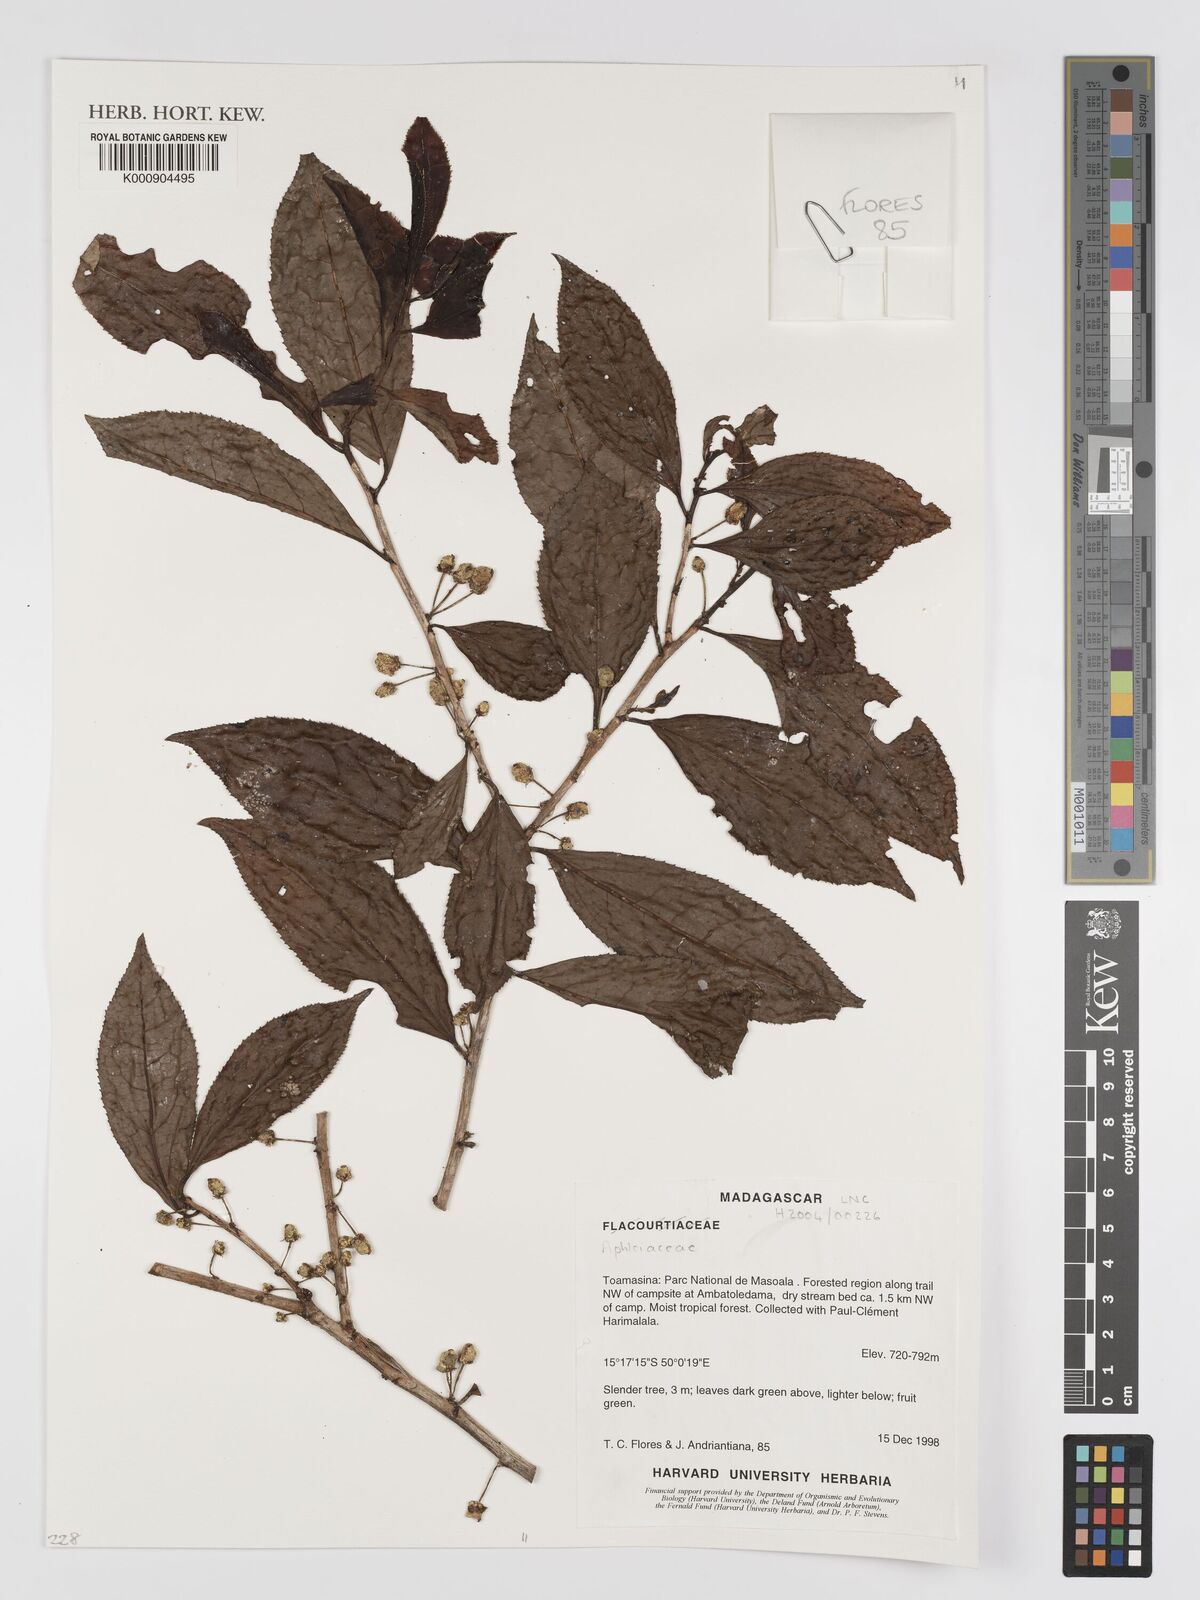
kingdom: Plantae
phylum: Tracheophyta
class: Magnoliopsida
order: Crossosomatales
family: Aphloiaceae
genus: Aphloia
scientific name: Aphloia
